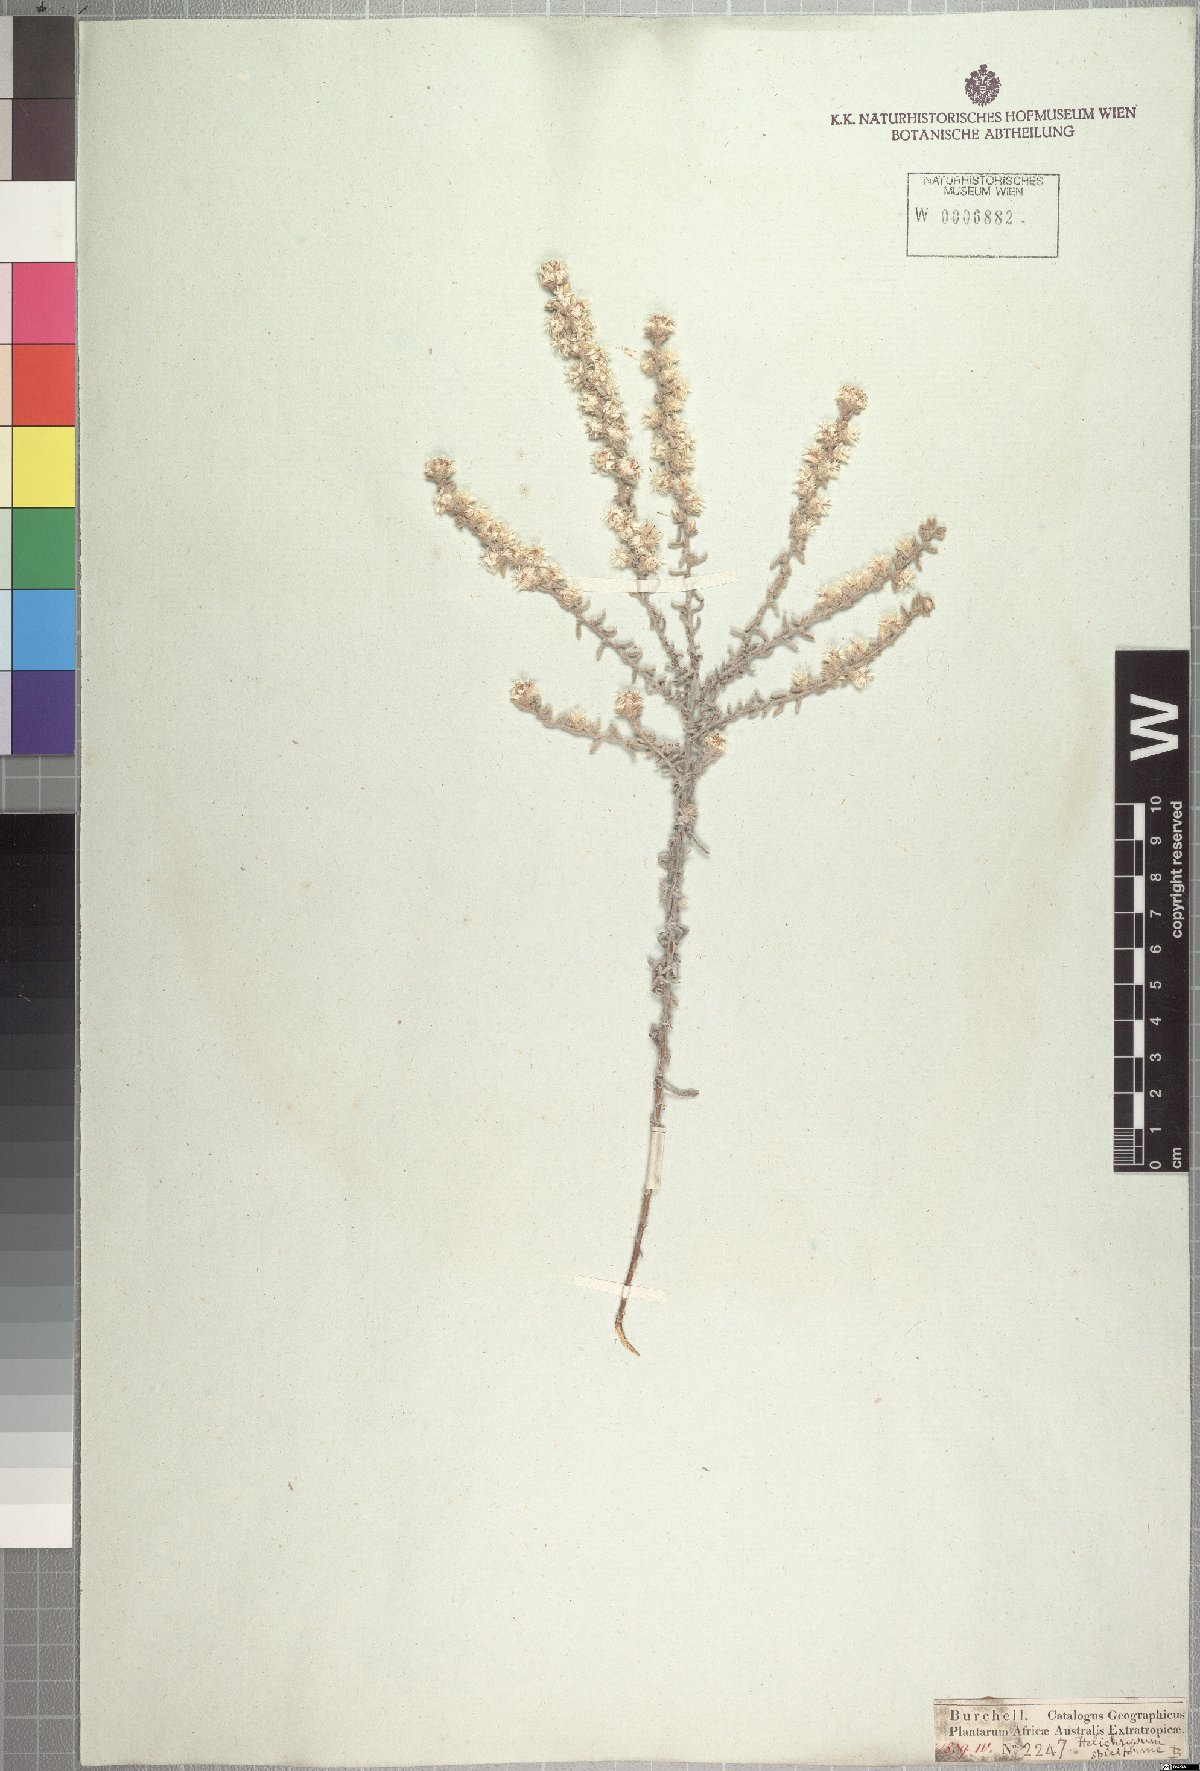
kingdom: Plantae
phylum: Tracheophyta
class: Magnoliopsida
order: Asterales
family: Asteraceae
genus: Helichrysum
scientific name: Helichrysum spiciforme
